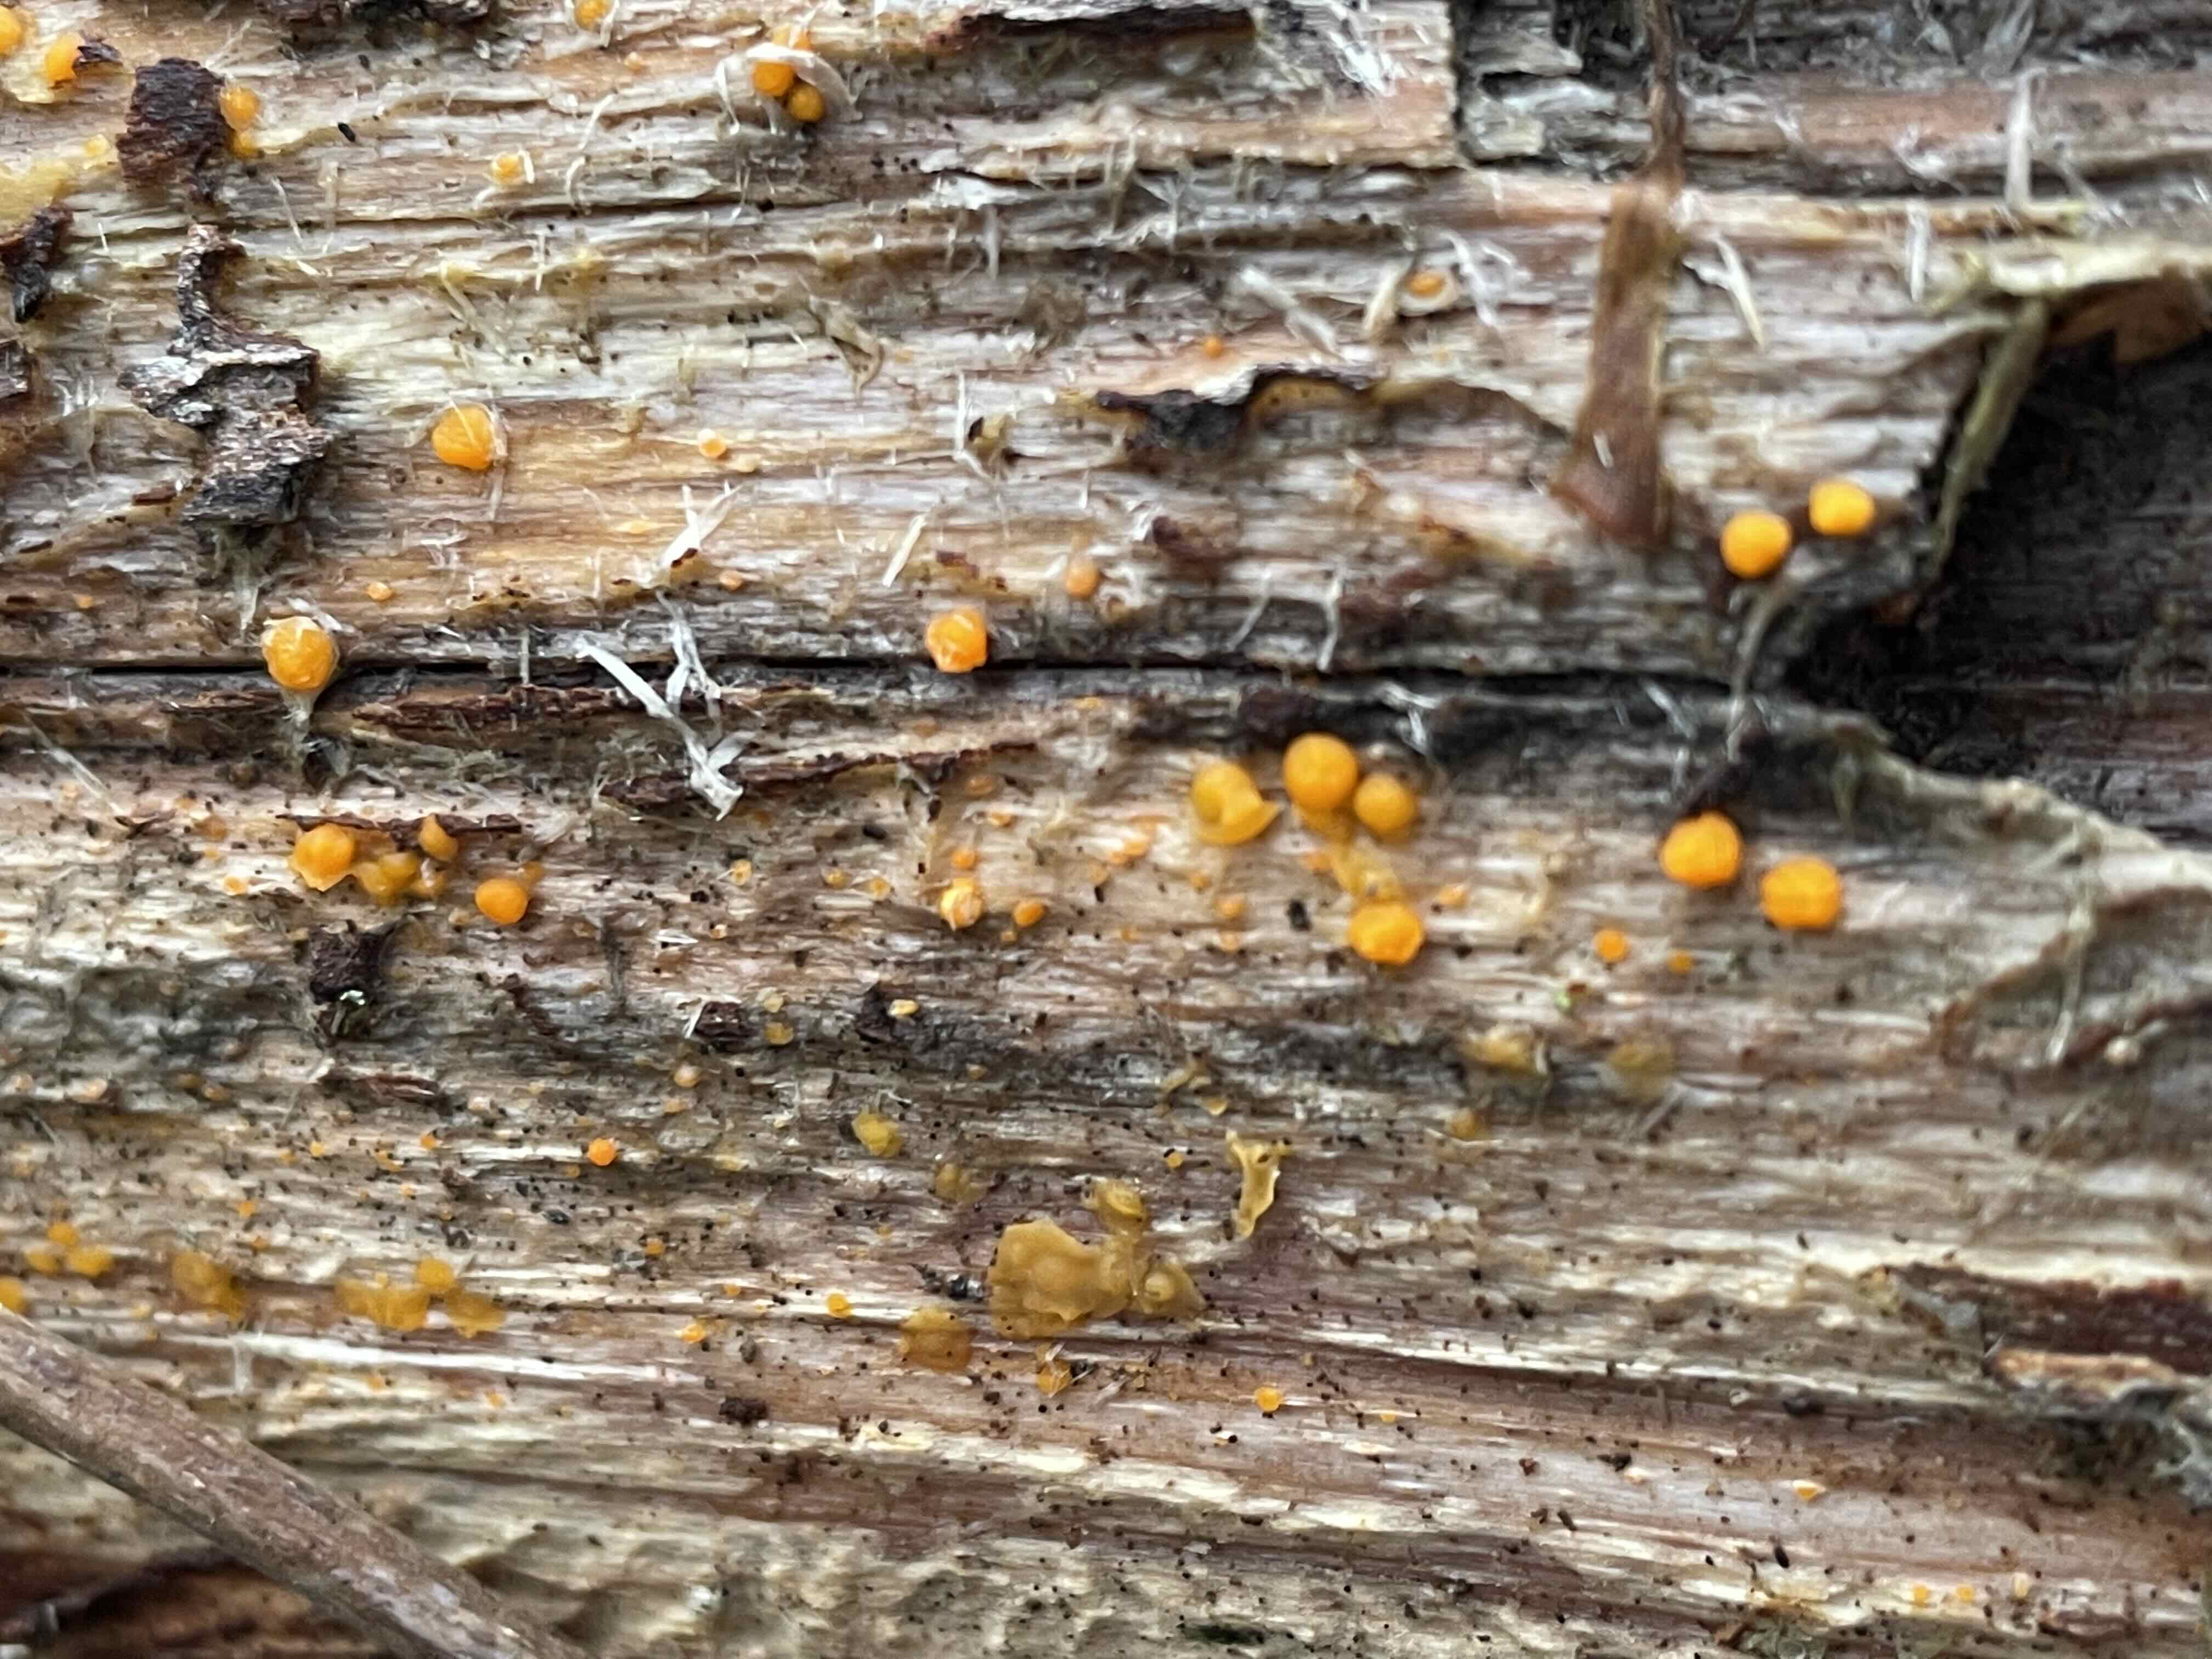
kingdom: Fungi
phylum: Basidiomycota
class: Dacrymycetes
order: Dacrymycetales
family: Dacrymycetaceae
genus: Dacrymyces
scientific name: Dacrymyces stillatus
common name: almindelig tåresvamp
